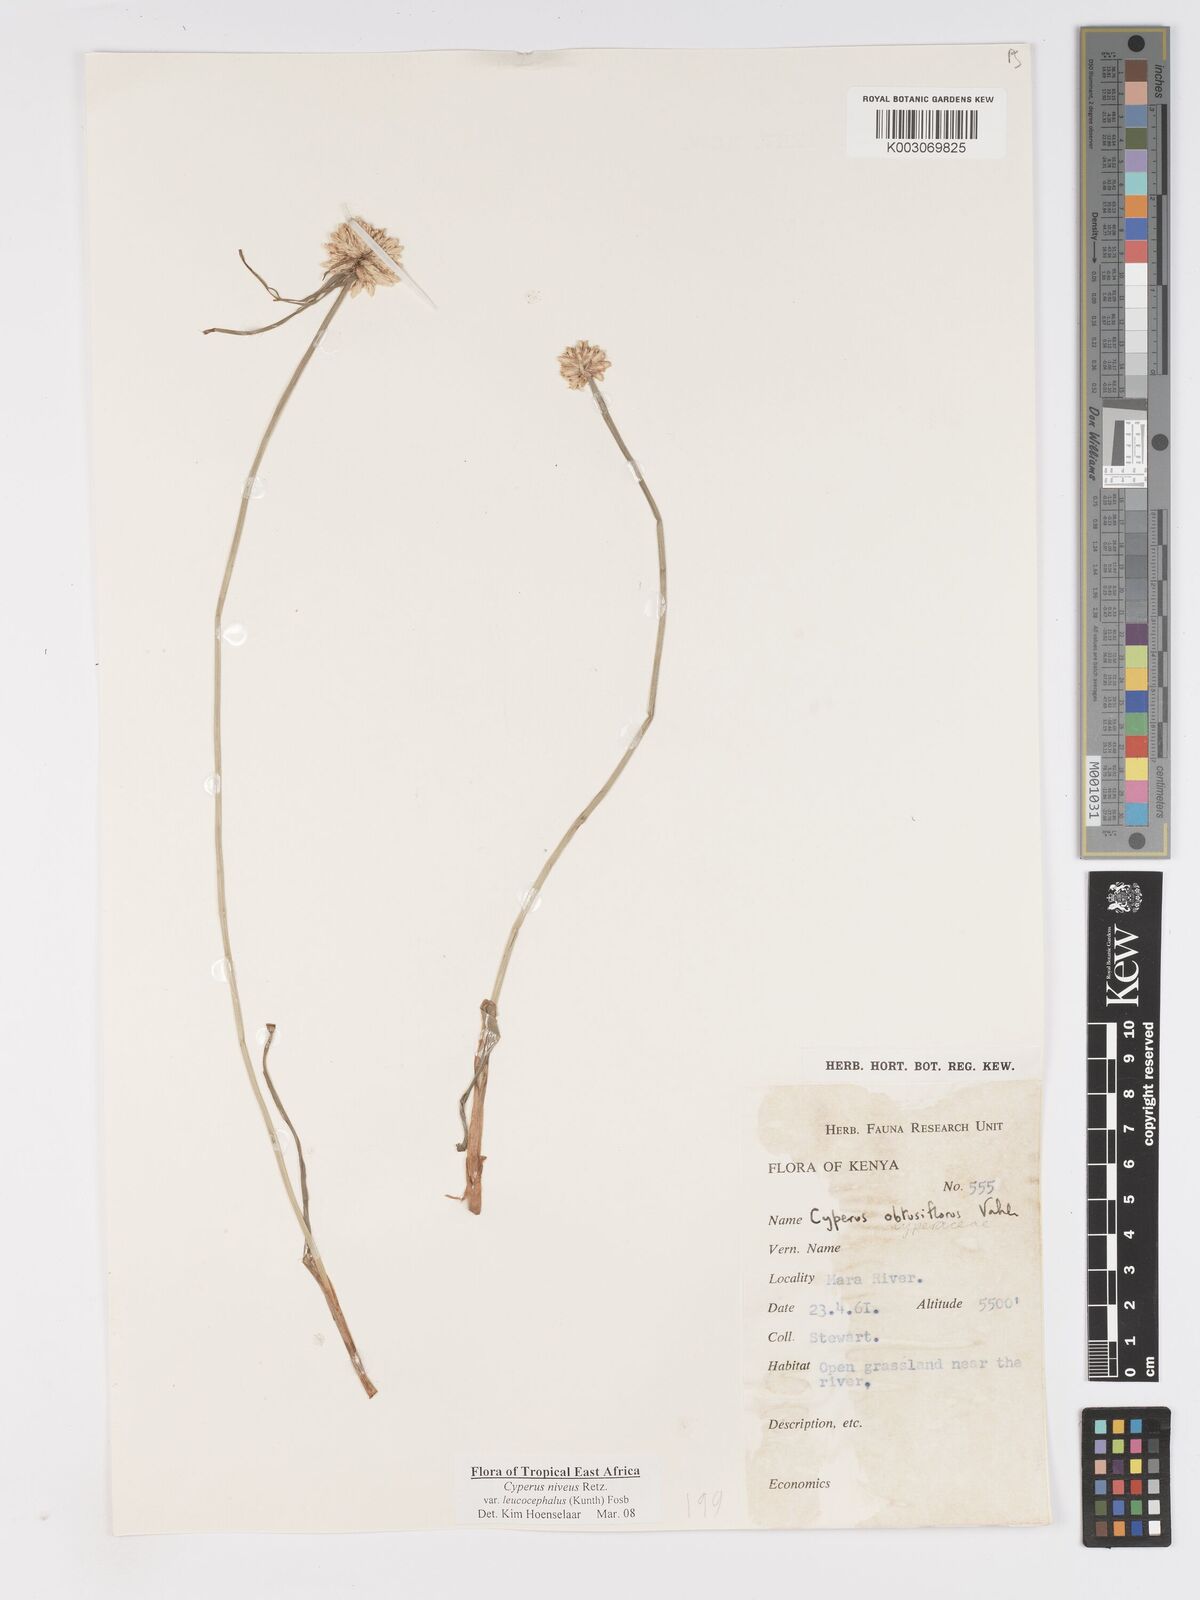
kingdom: Plantae
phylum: Tracheophyta
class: Liliopsida
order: Poales
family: Cyperaceae
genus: Cyperus
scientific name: Cyperus niveus
